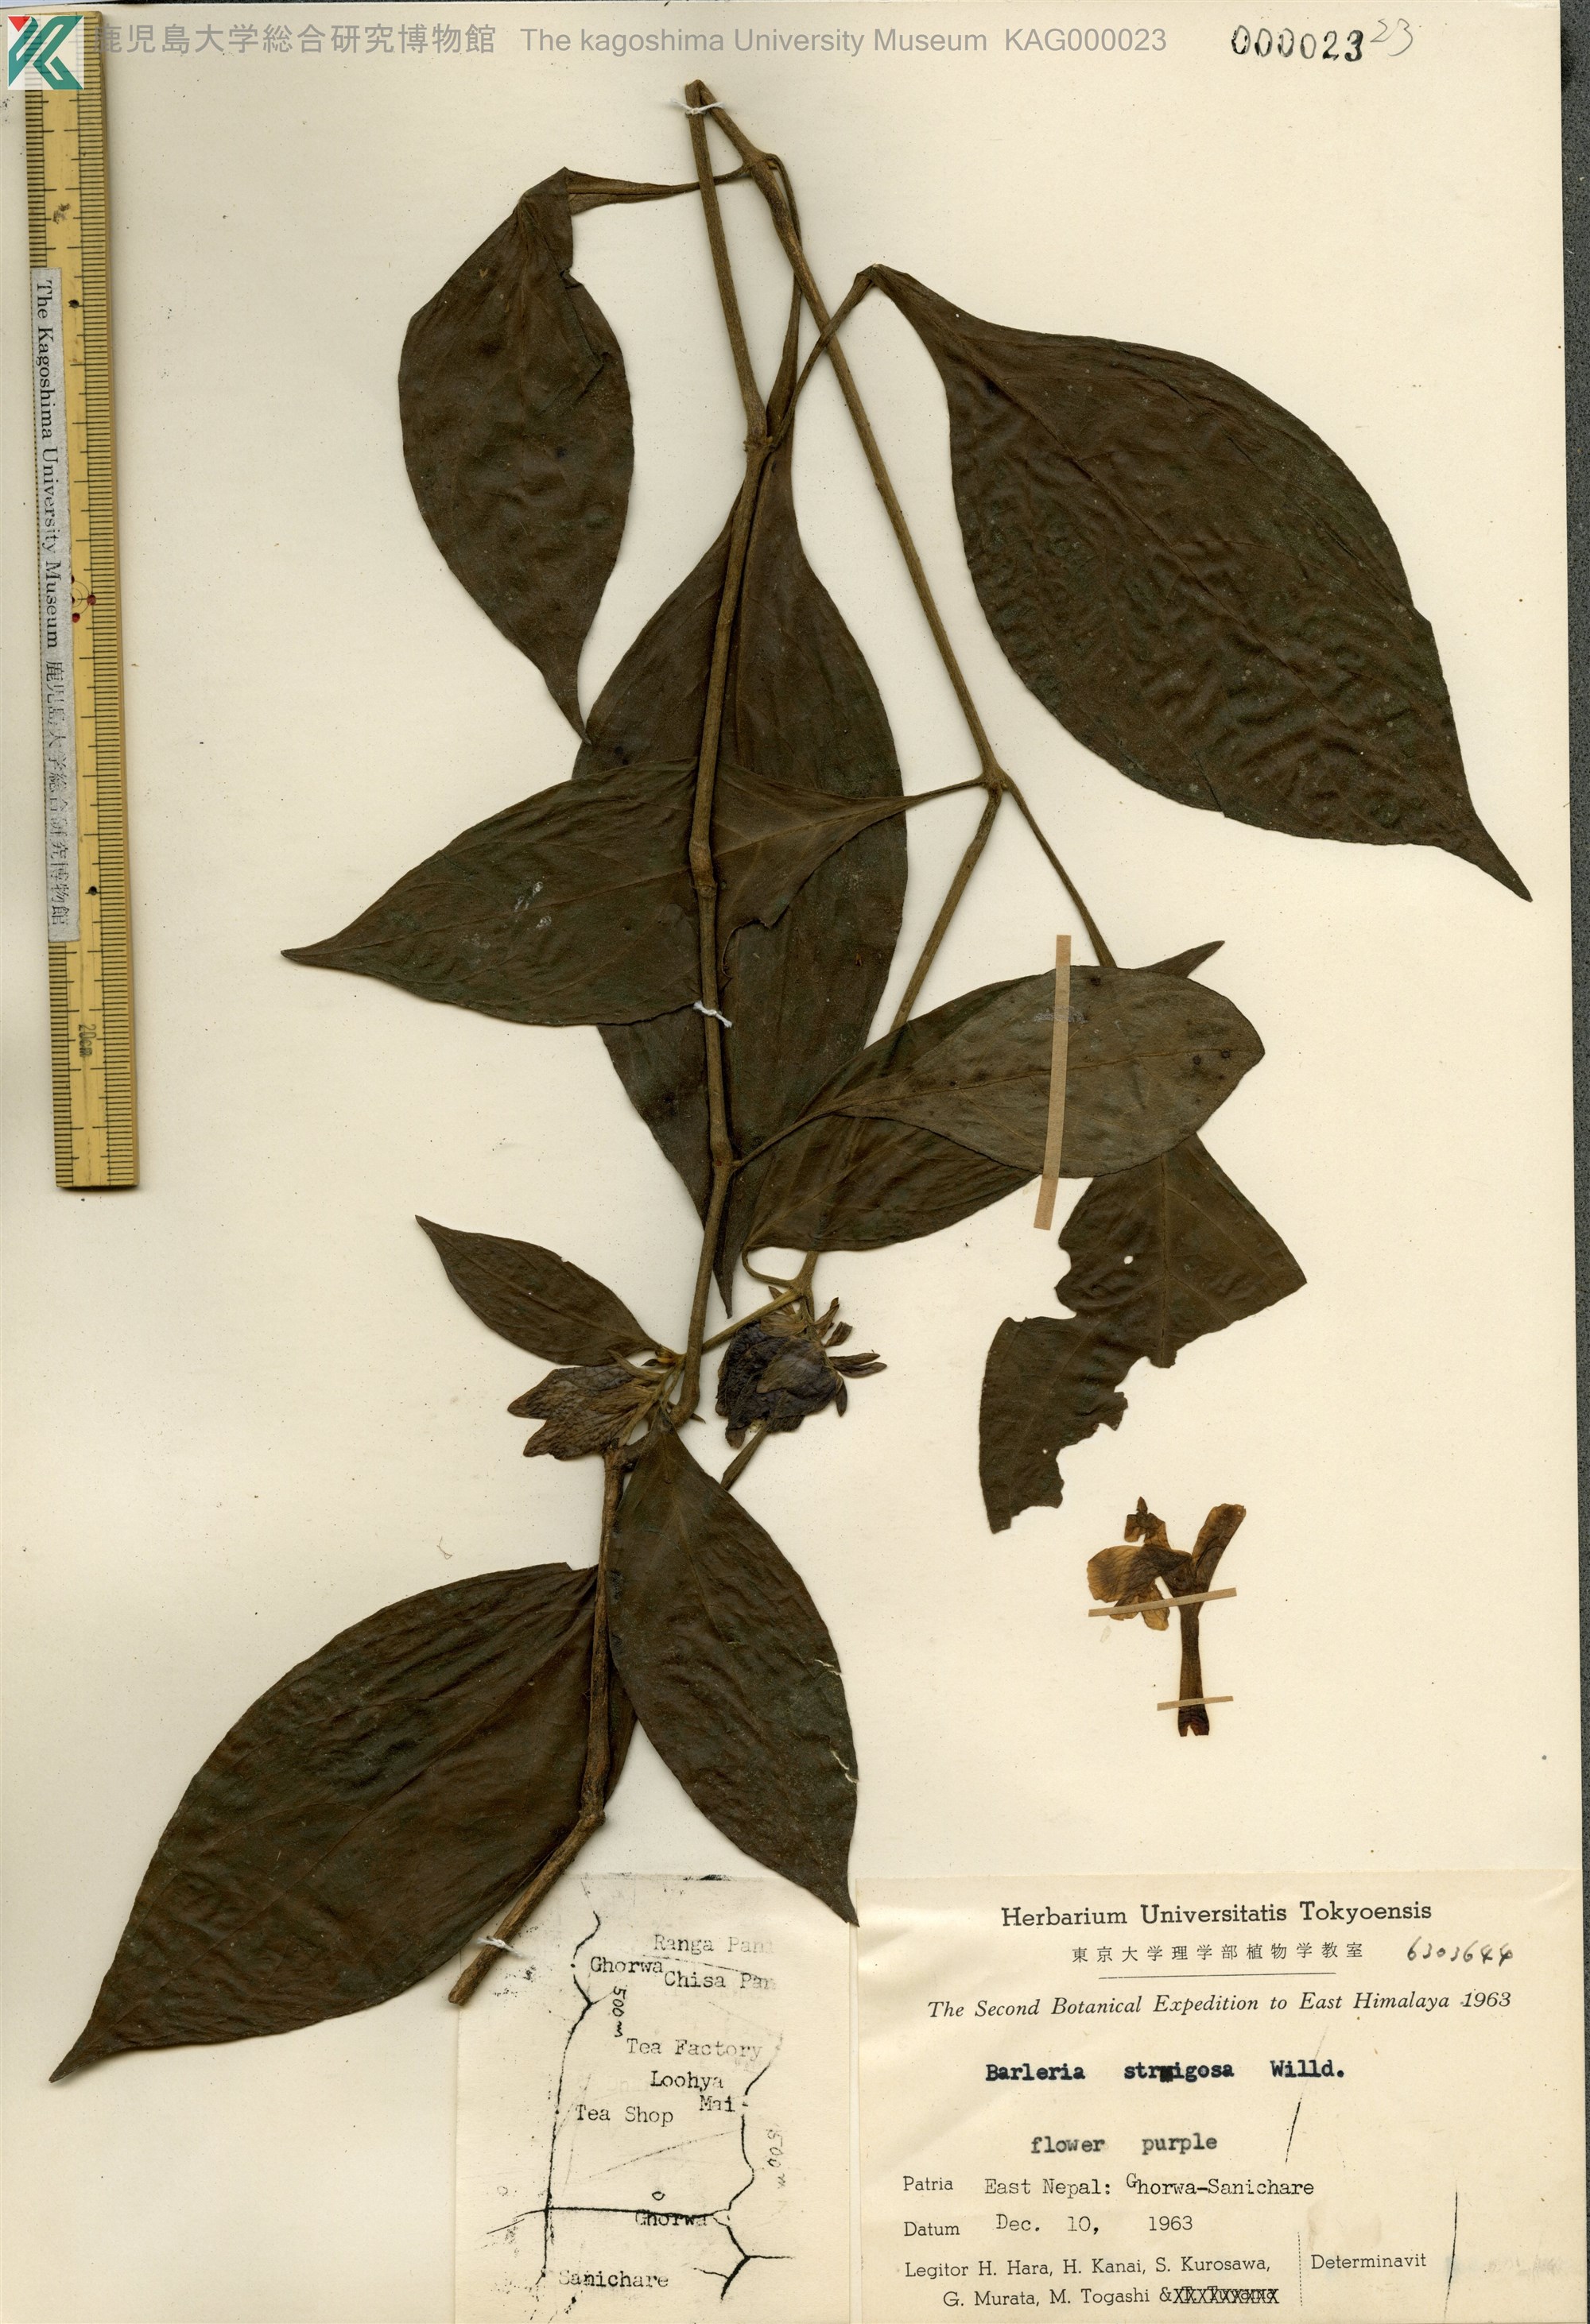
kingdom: Plantae
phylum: Tracheophyta
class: Magnoliopsida
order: Lamiales
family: Acanthaceae
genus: Barleria
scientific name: Barleria strigosa
